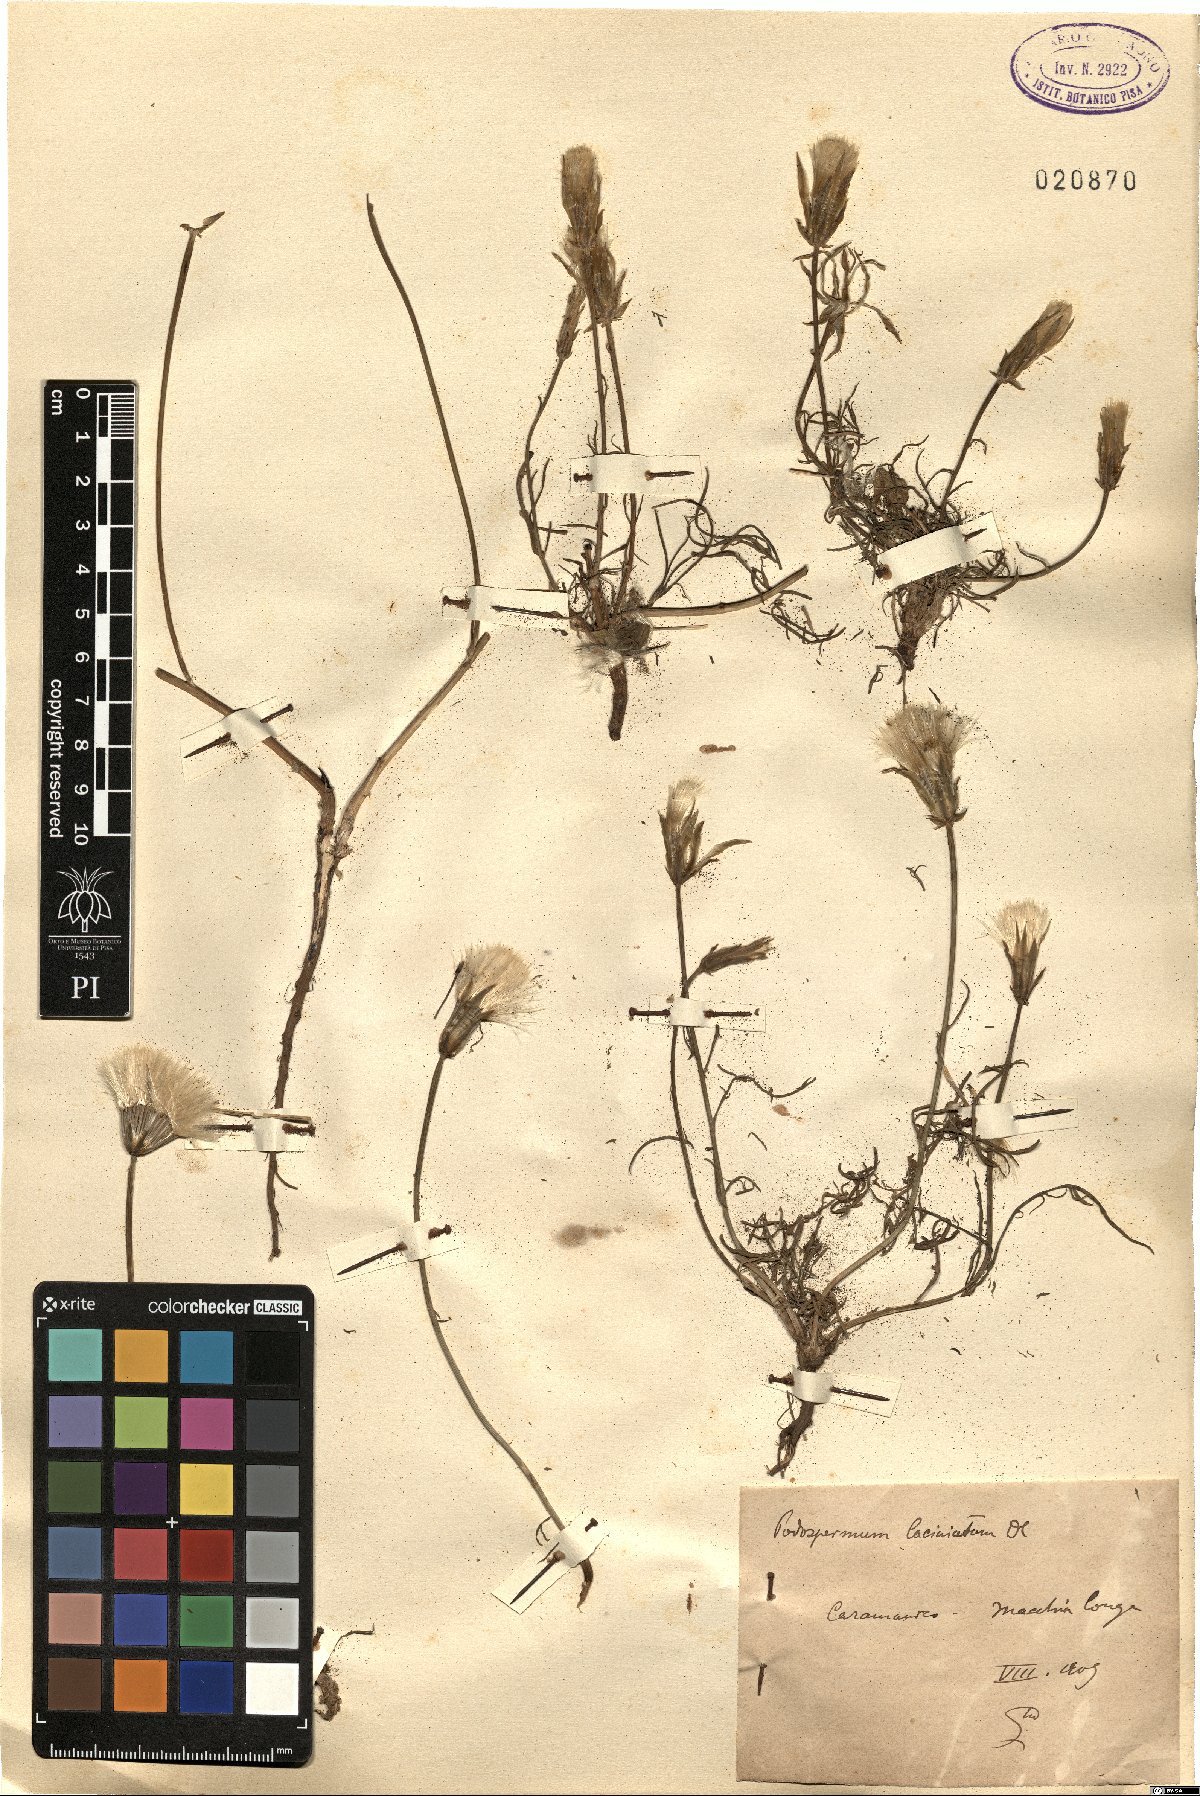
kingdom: Plantae
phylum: Tracheophyta
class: Magnoliopsida
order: Asterales
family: Asteraceae
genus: Scorzonera
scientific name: Scorzonera laciniata
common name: Cutleaf vipergrass
